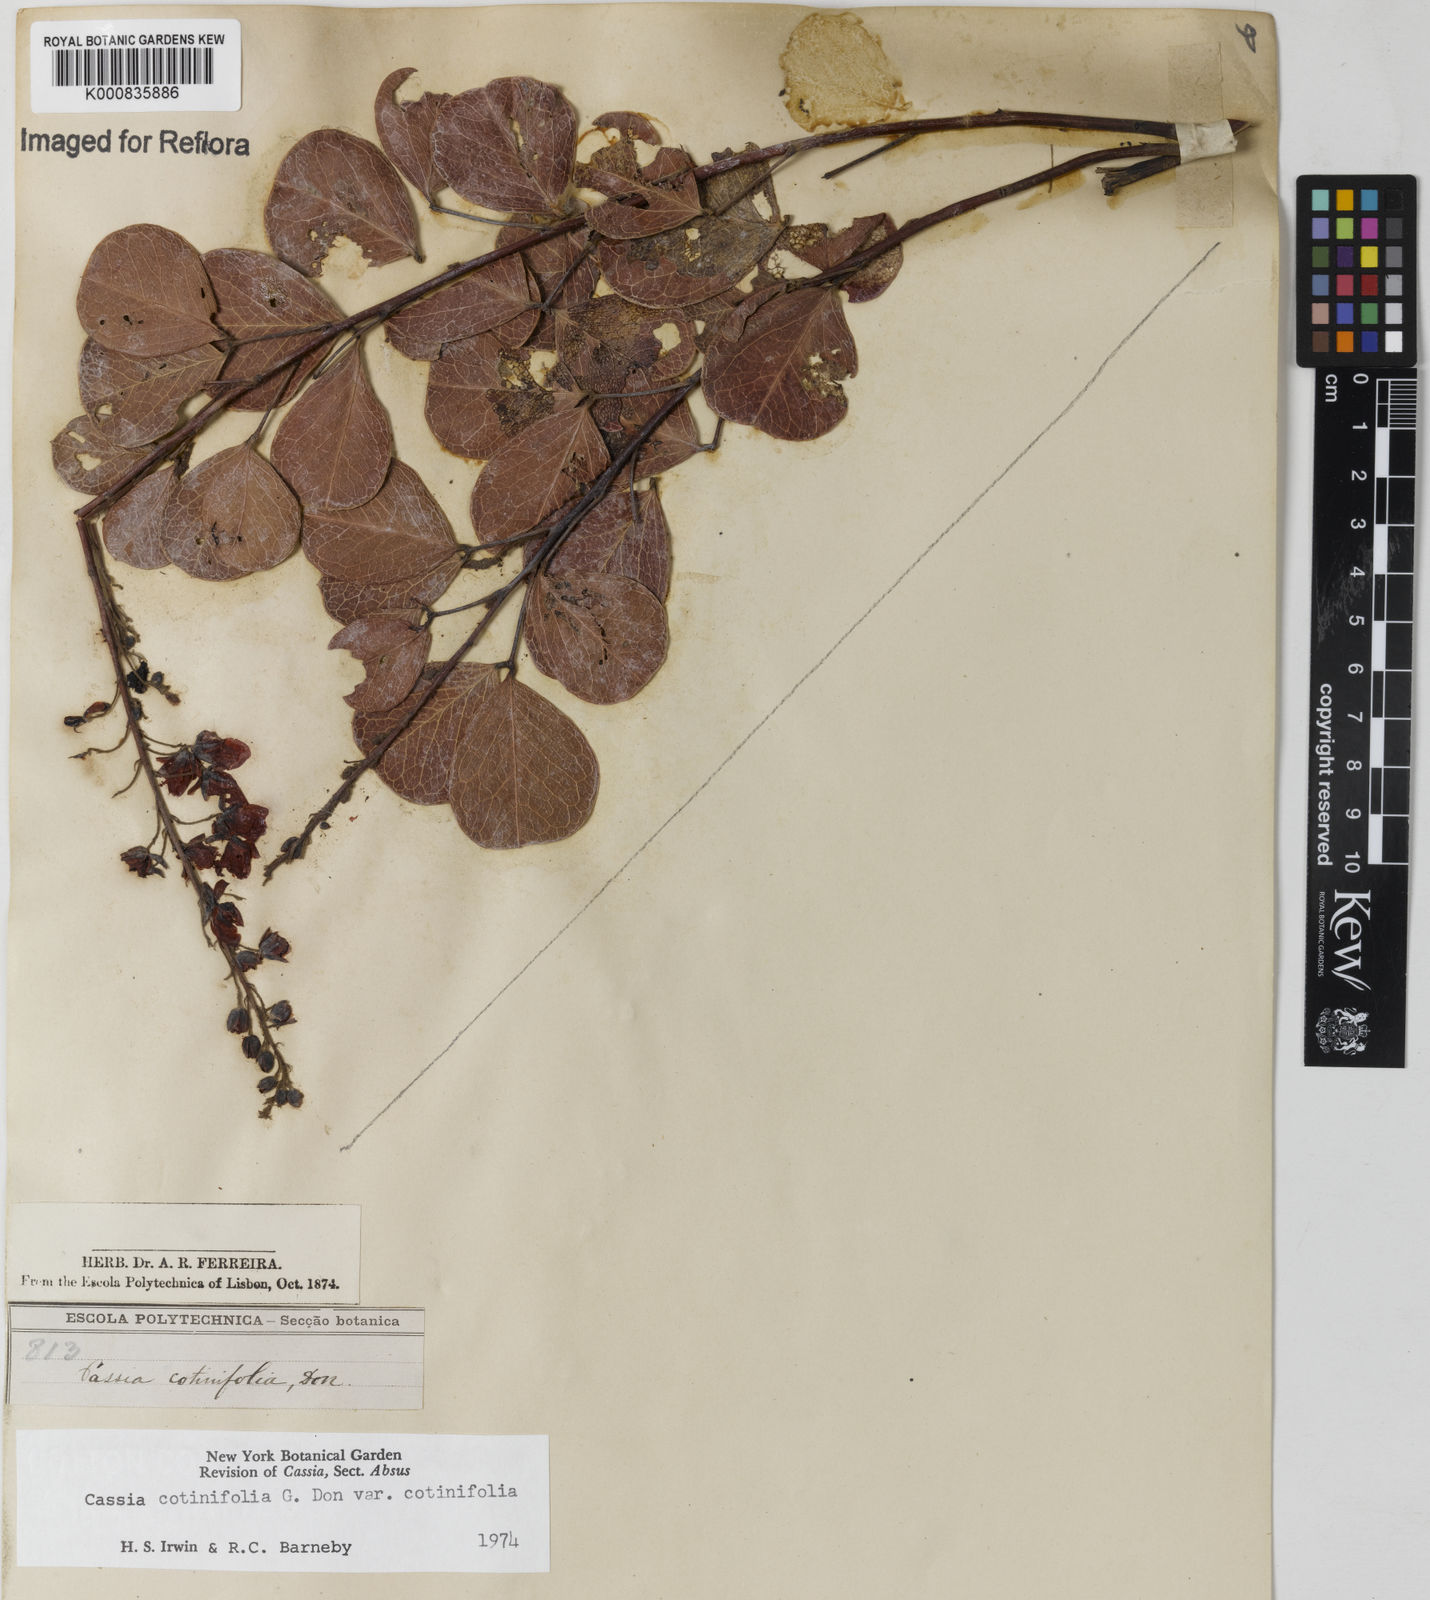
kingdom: Plantae
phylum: Tracheophyta
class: Magnoliopsida
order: Fabales
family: Fabaceae
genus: Chamaecrista
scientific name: Chamaecrista cotinifolia
